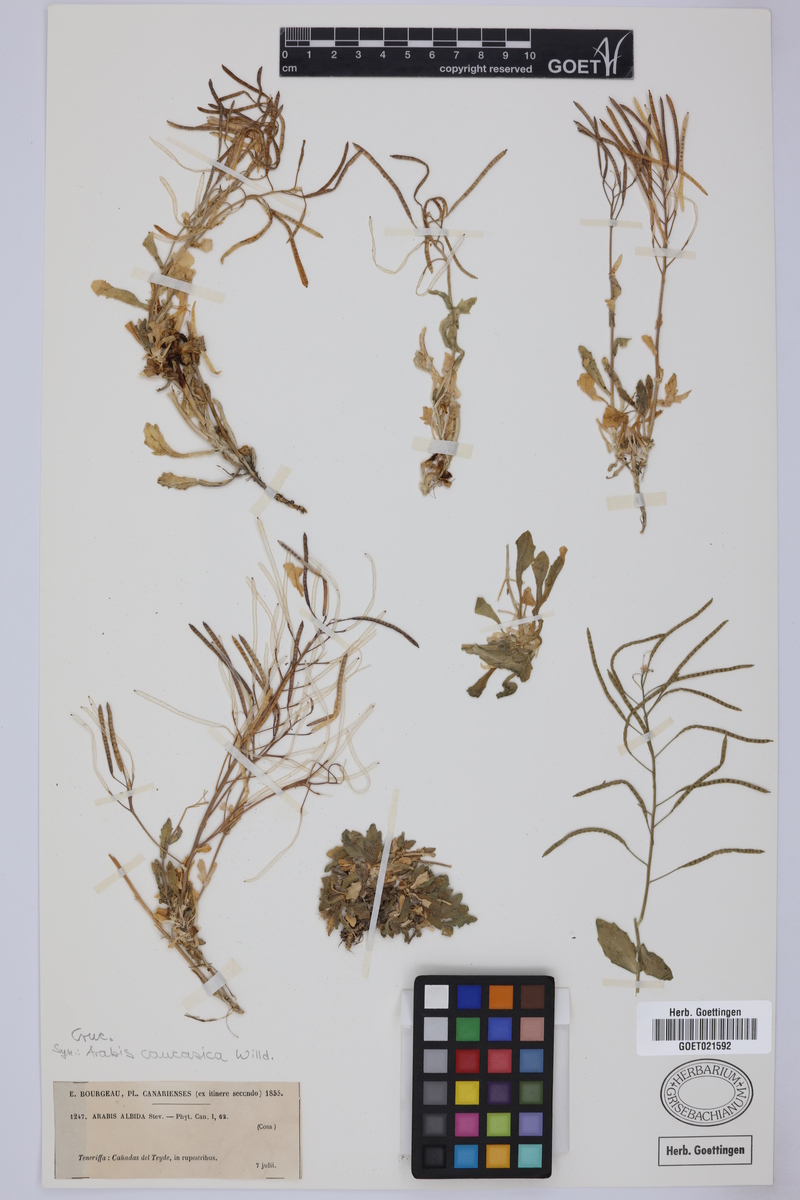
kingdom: Plantae
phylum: Tracheophyta
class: Magnoliopsida
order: Brassicales
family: Brassicaceae
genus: Arabis
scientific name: Arabis caucasica
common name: Gray rockcress
